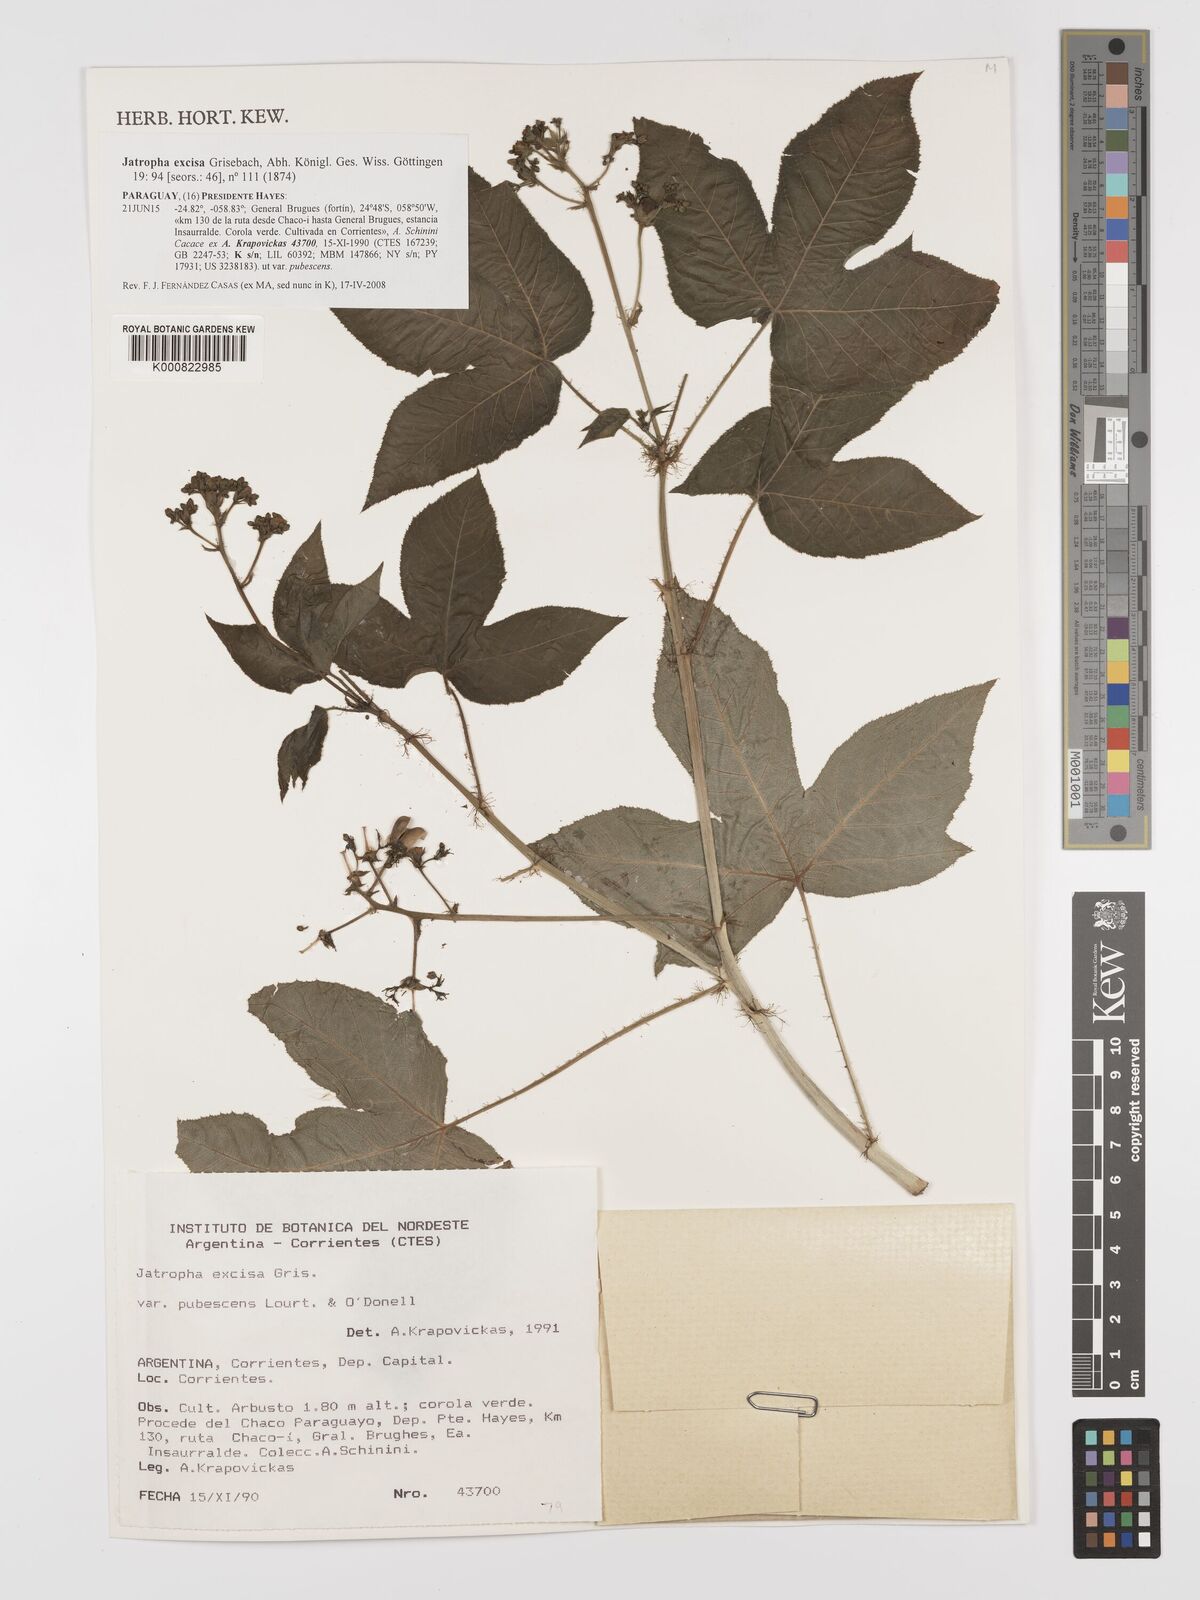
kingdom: Plantae
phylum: Tracheophyta
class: Magnoliopsida
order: Malpighiales
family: Euphorbiaceae
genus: Jatropha
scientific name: Jatropha excisa
